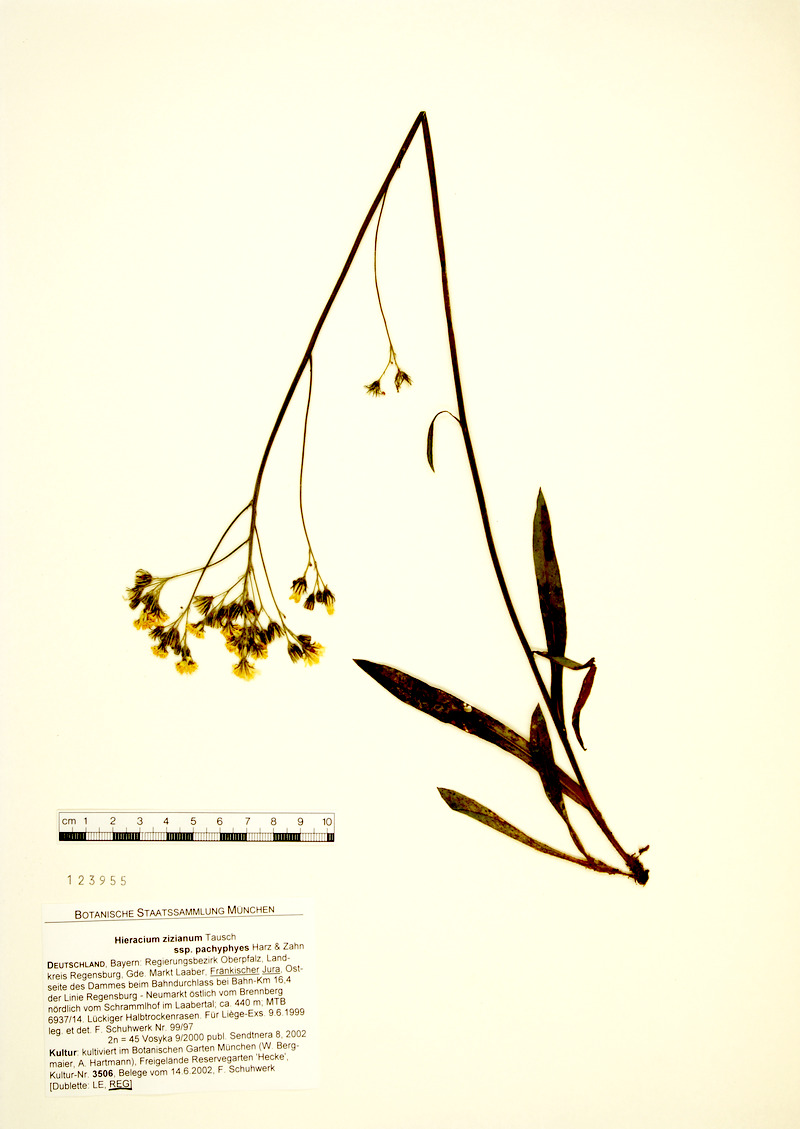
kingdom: Plantae
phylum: Tracheophyta
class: Magnoliopsida
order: Asterales
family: Asteraceae
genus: Pilosella
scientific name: Pilosella ziziana
